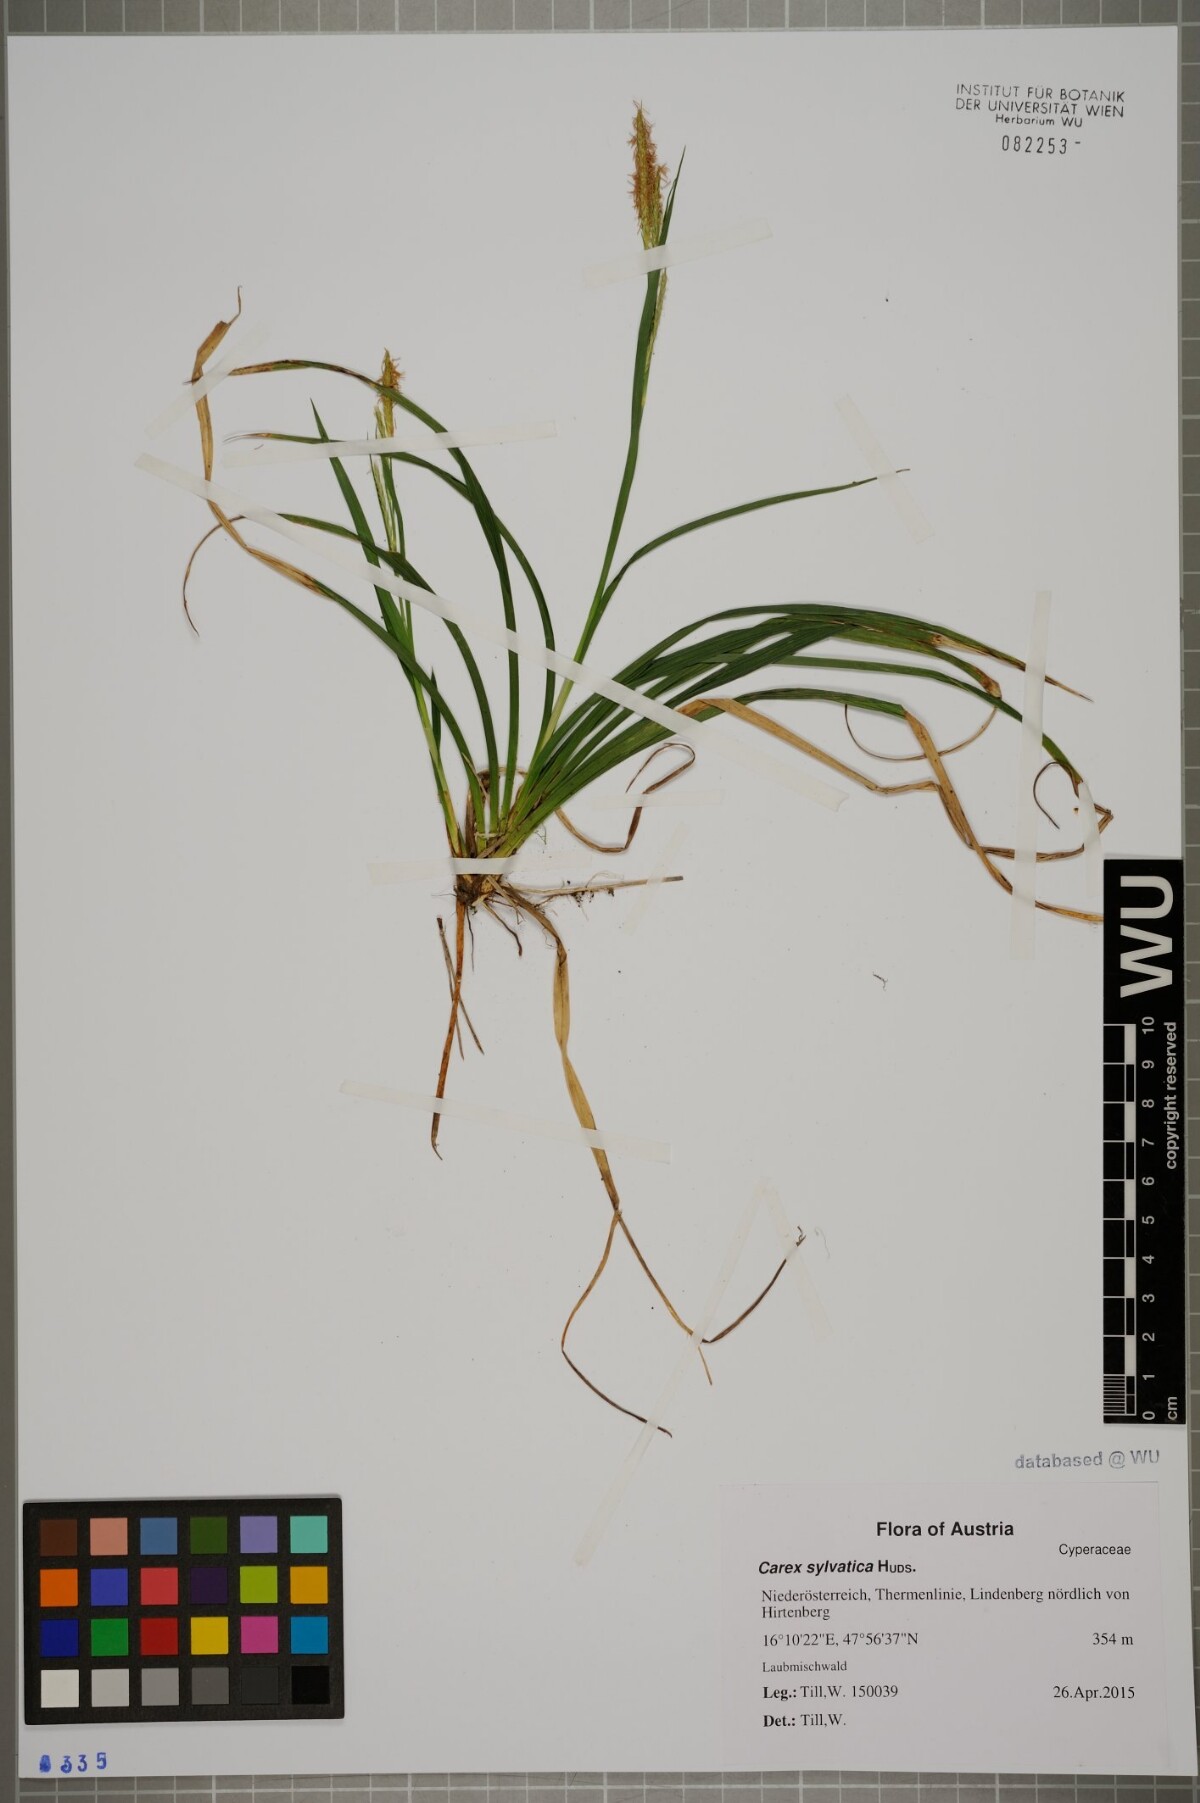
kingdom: Plantae
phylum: Tracheophyta
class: Liliopsida
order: Poales
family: Cyperaceae
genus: Carex
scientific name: Carex sylvatica
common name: Wood-sedge
